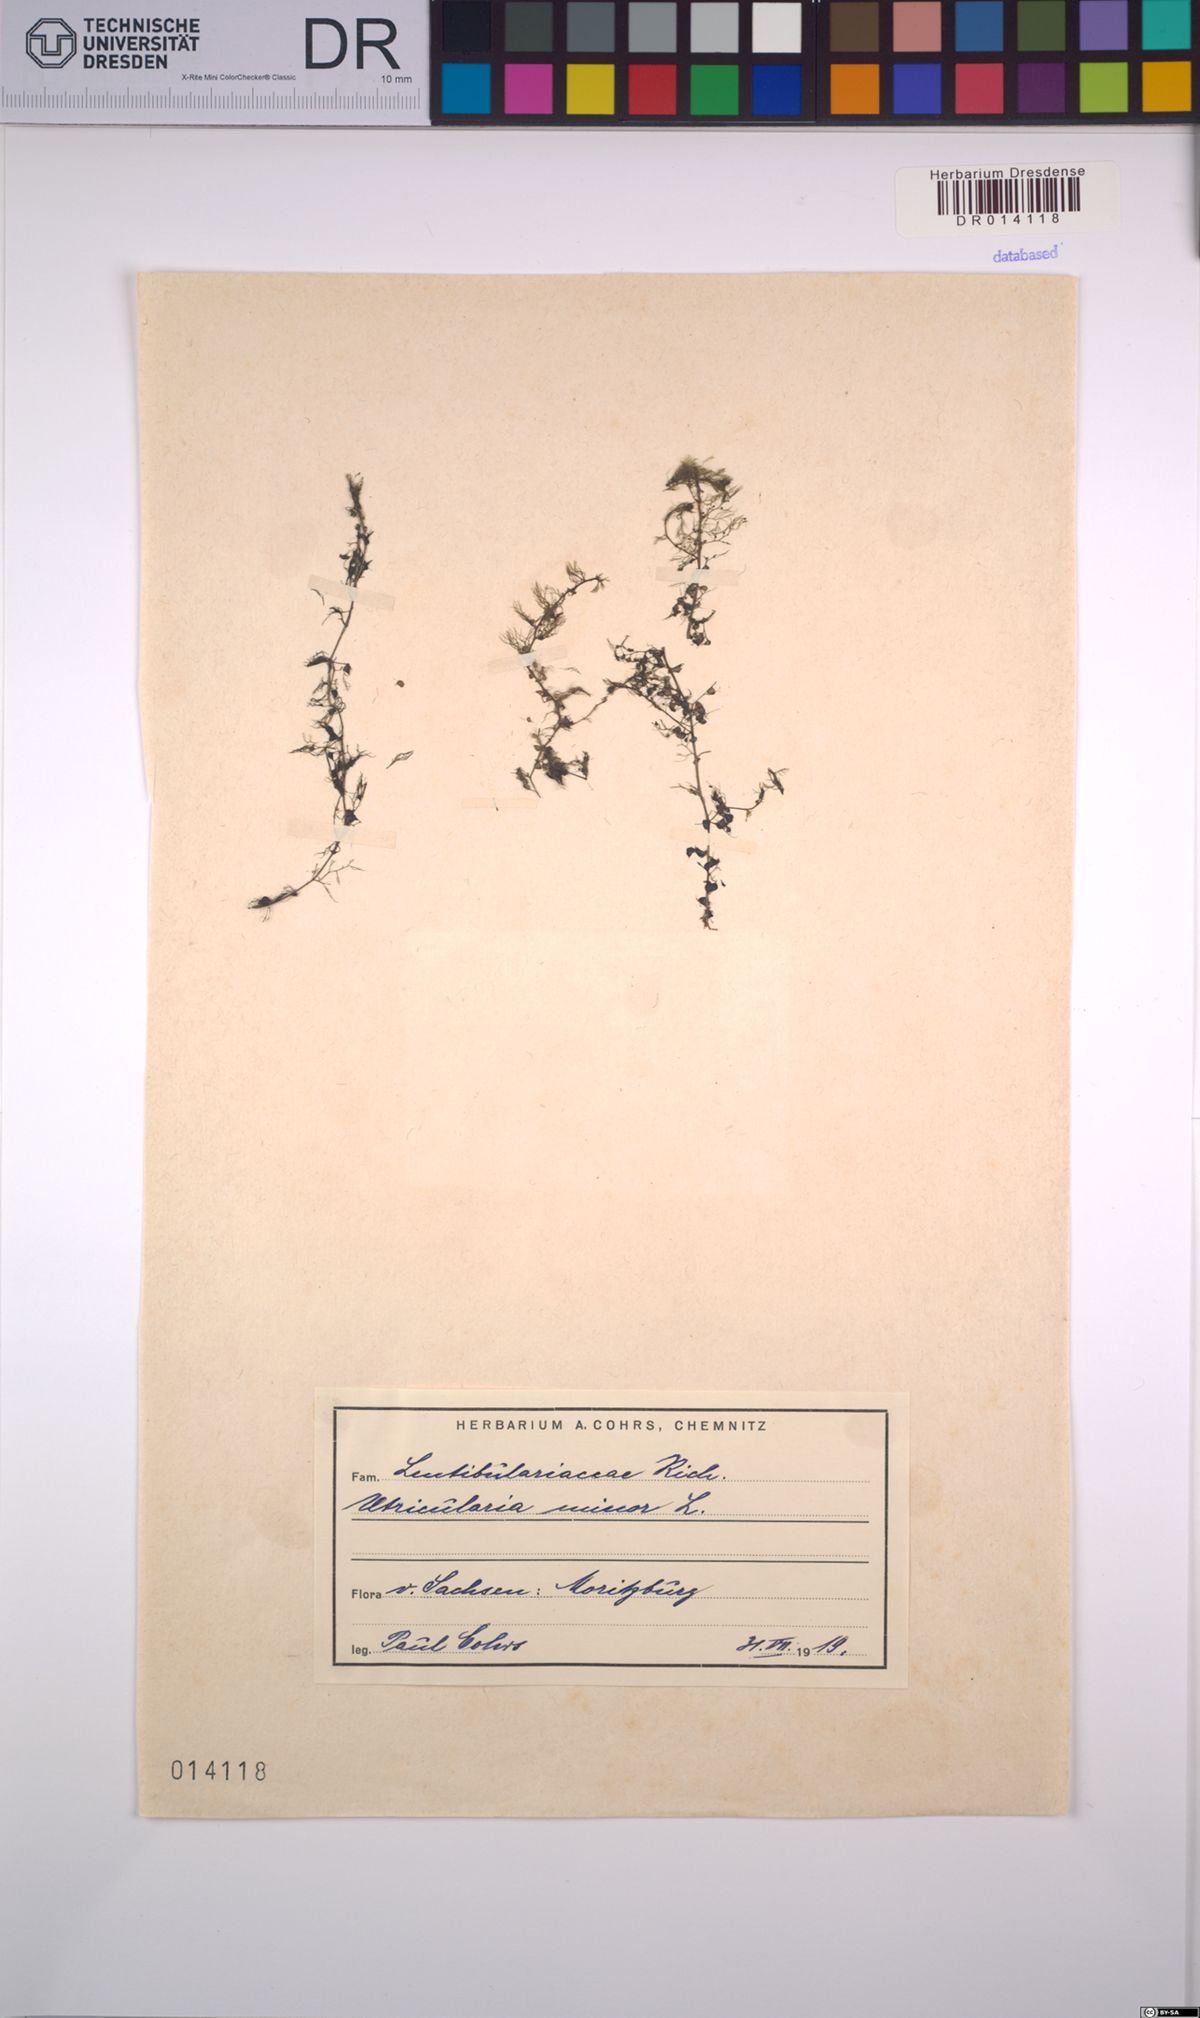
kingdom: Plantae
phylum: Tracheophyta
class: Magnoliopsida
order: Lamiales
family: Lentibulariaceae
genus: Utricularia
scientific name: Utricularia minor
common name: Lesser bladderwort
